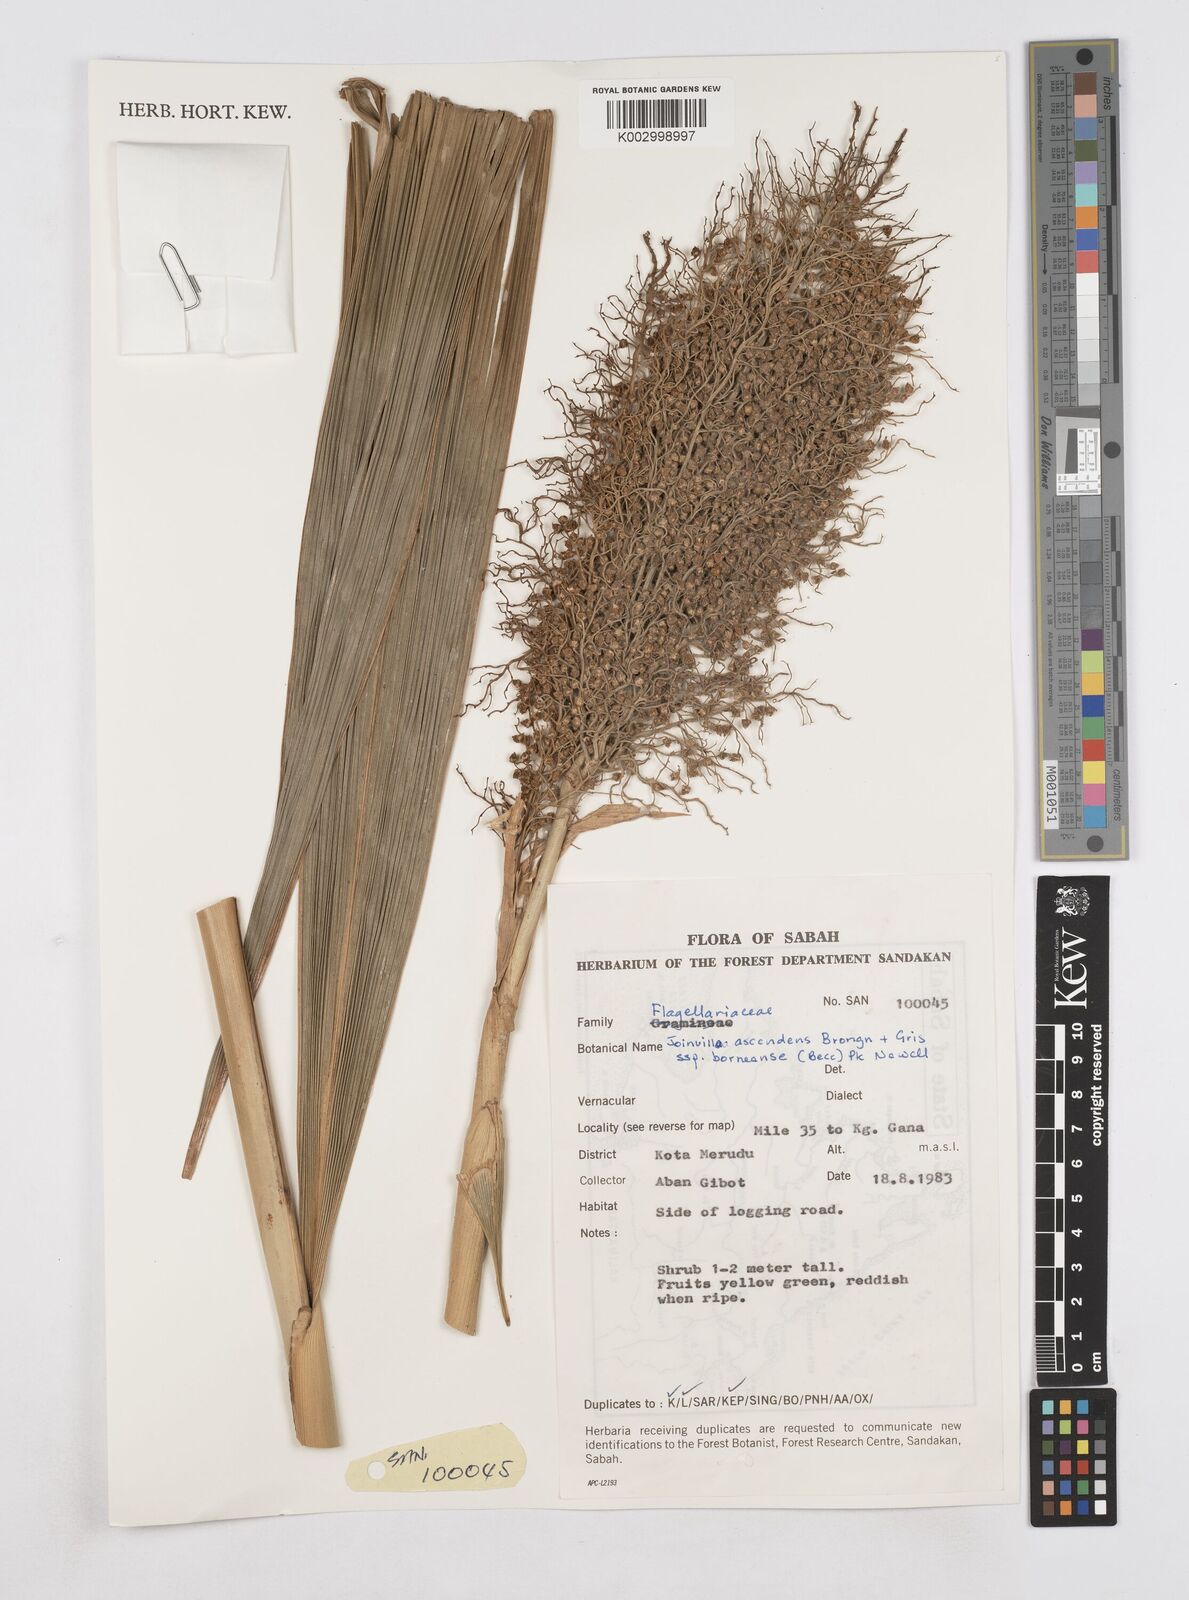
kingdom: Plantae
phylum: Tracheophyta
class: Liliopsida
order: Poales
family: Joinvilleaceae
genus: Joinvillea
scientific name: Joinvillea borneensis
